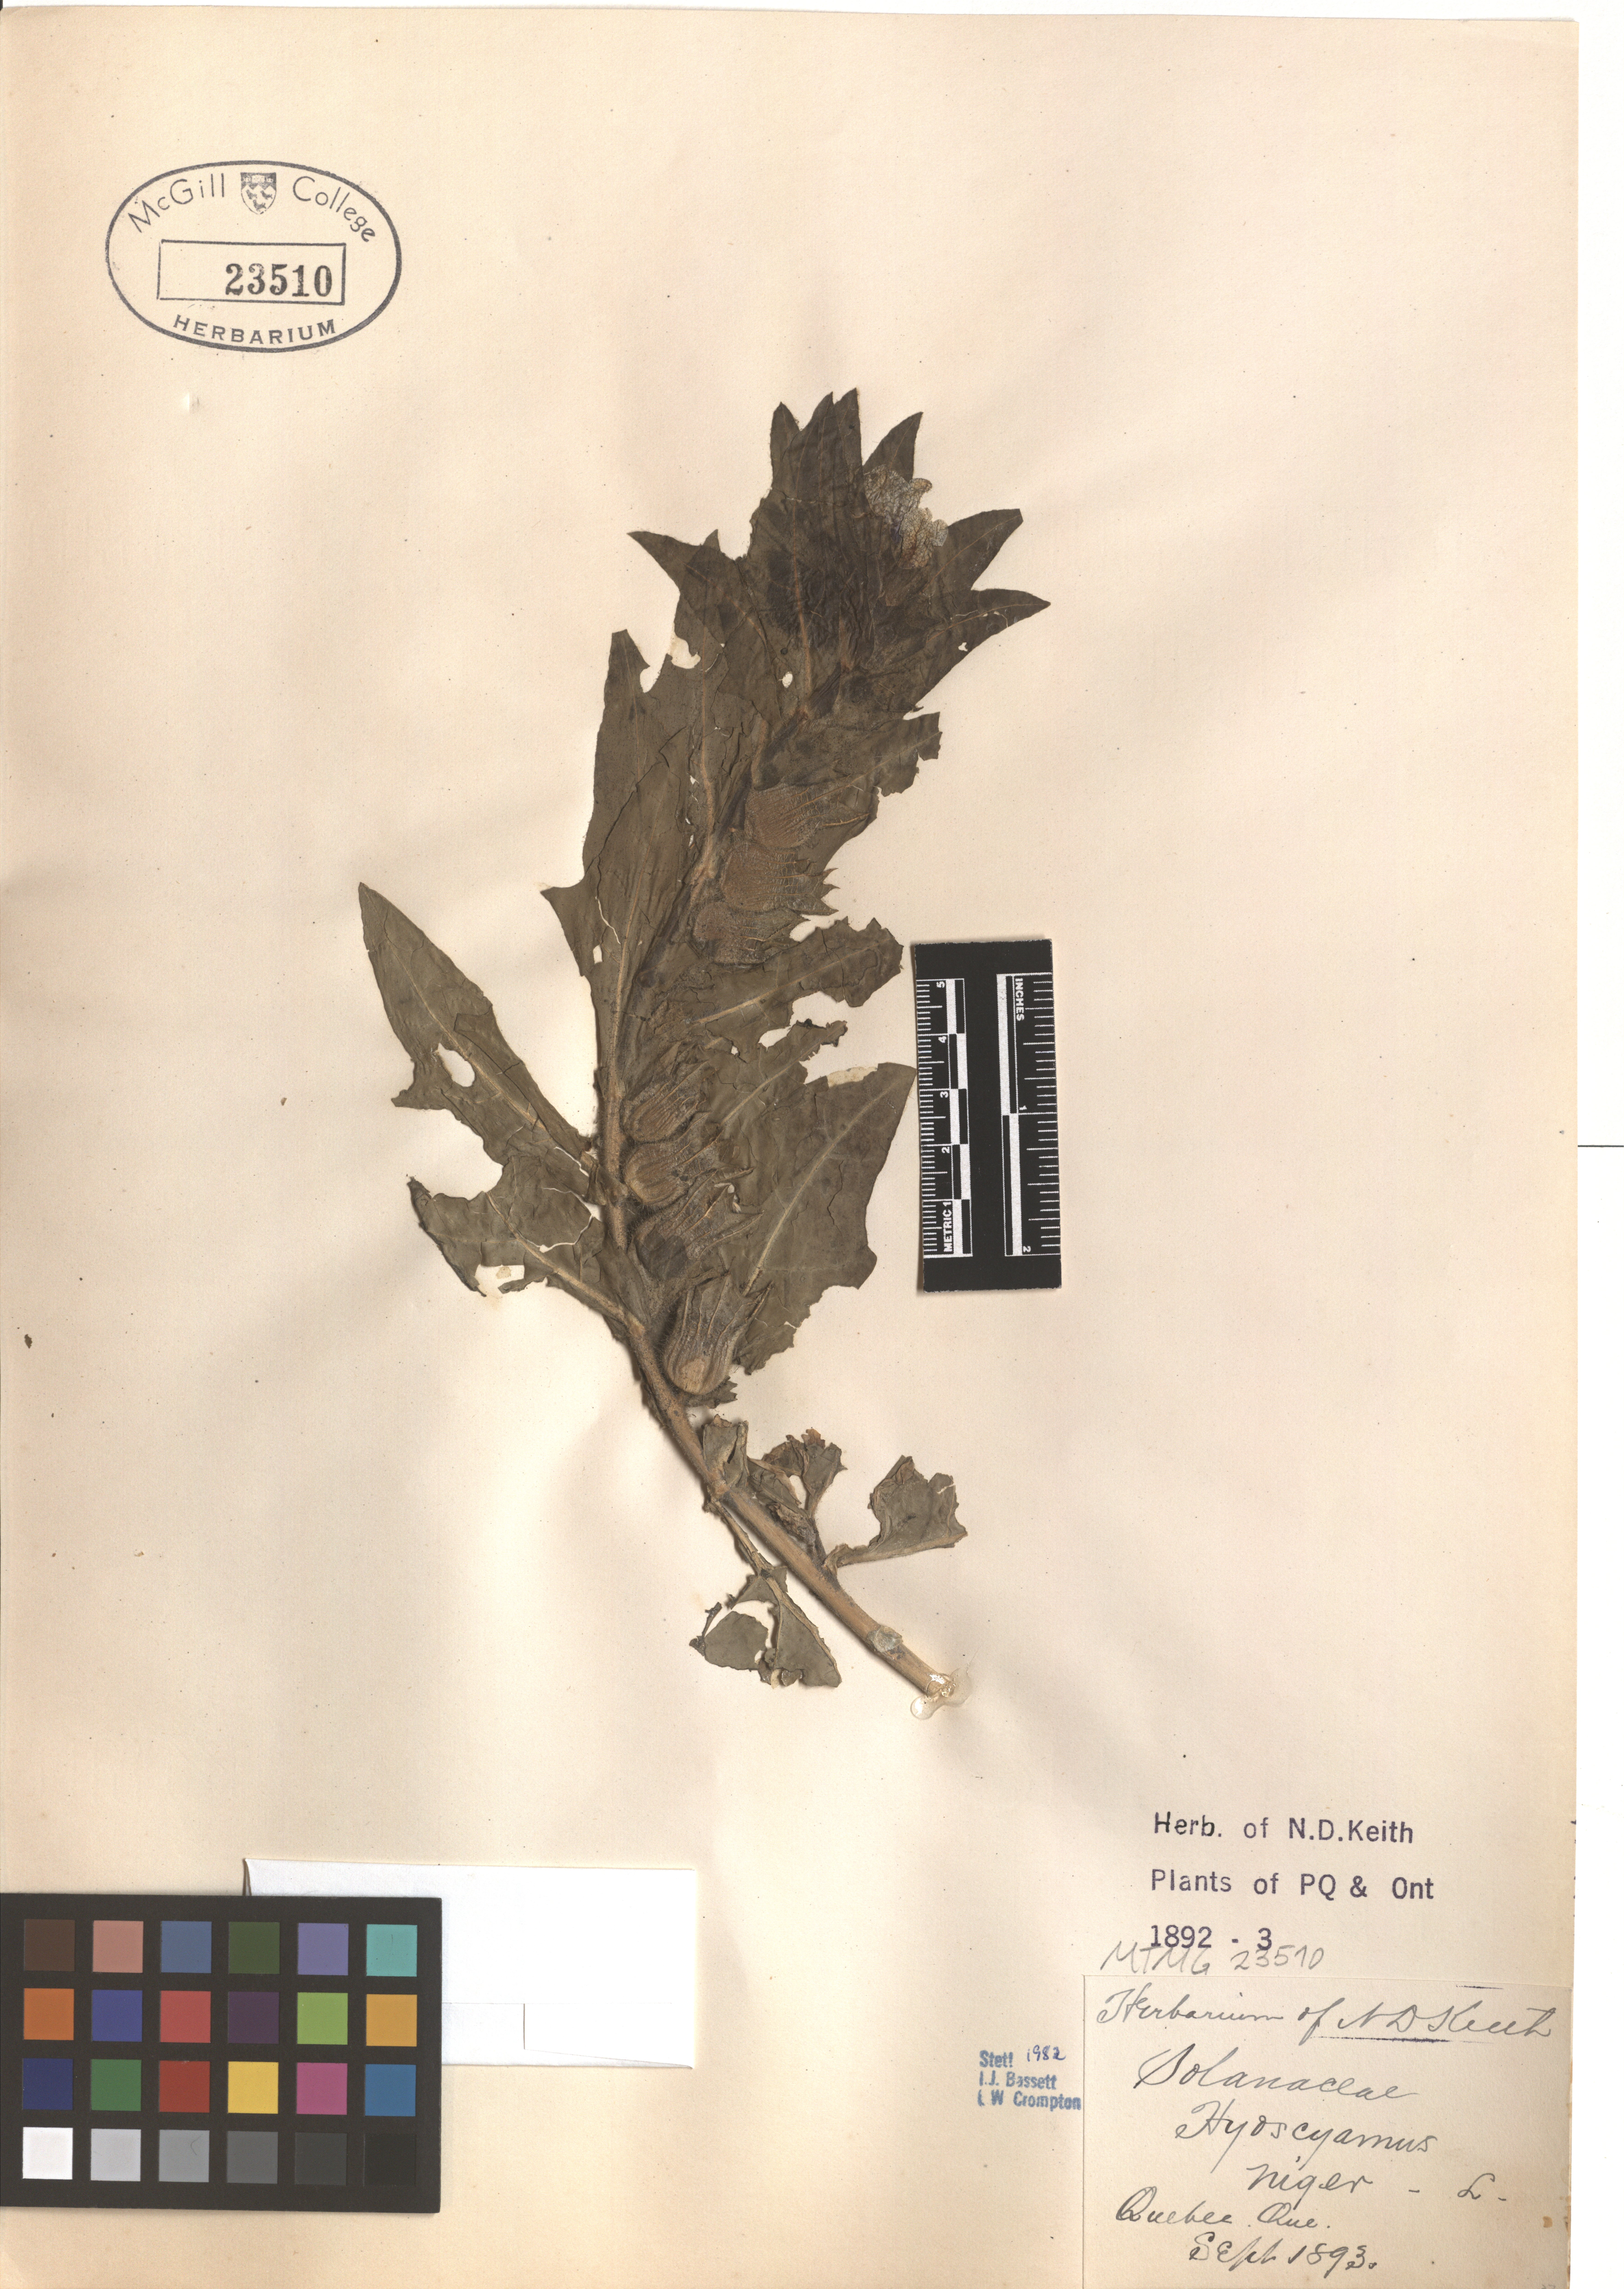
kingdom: Plantae
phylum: Tracheophyta
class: Magnoliopsida
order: Solanales
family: Solanaceae
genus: Hyoscyamus
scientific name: Hyoscyamus niger
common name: Henbane
